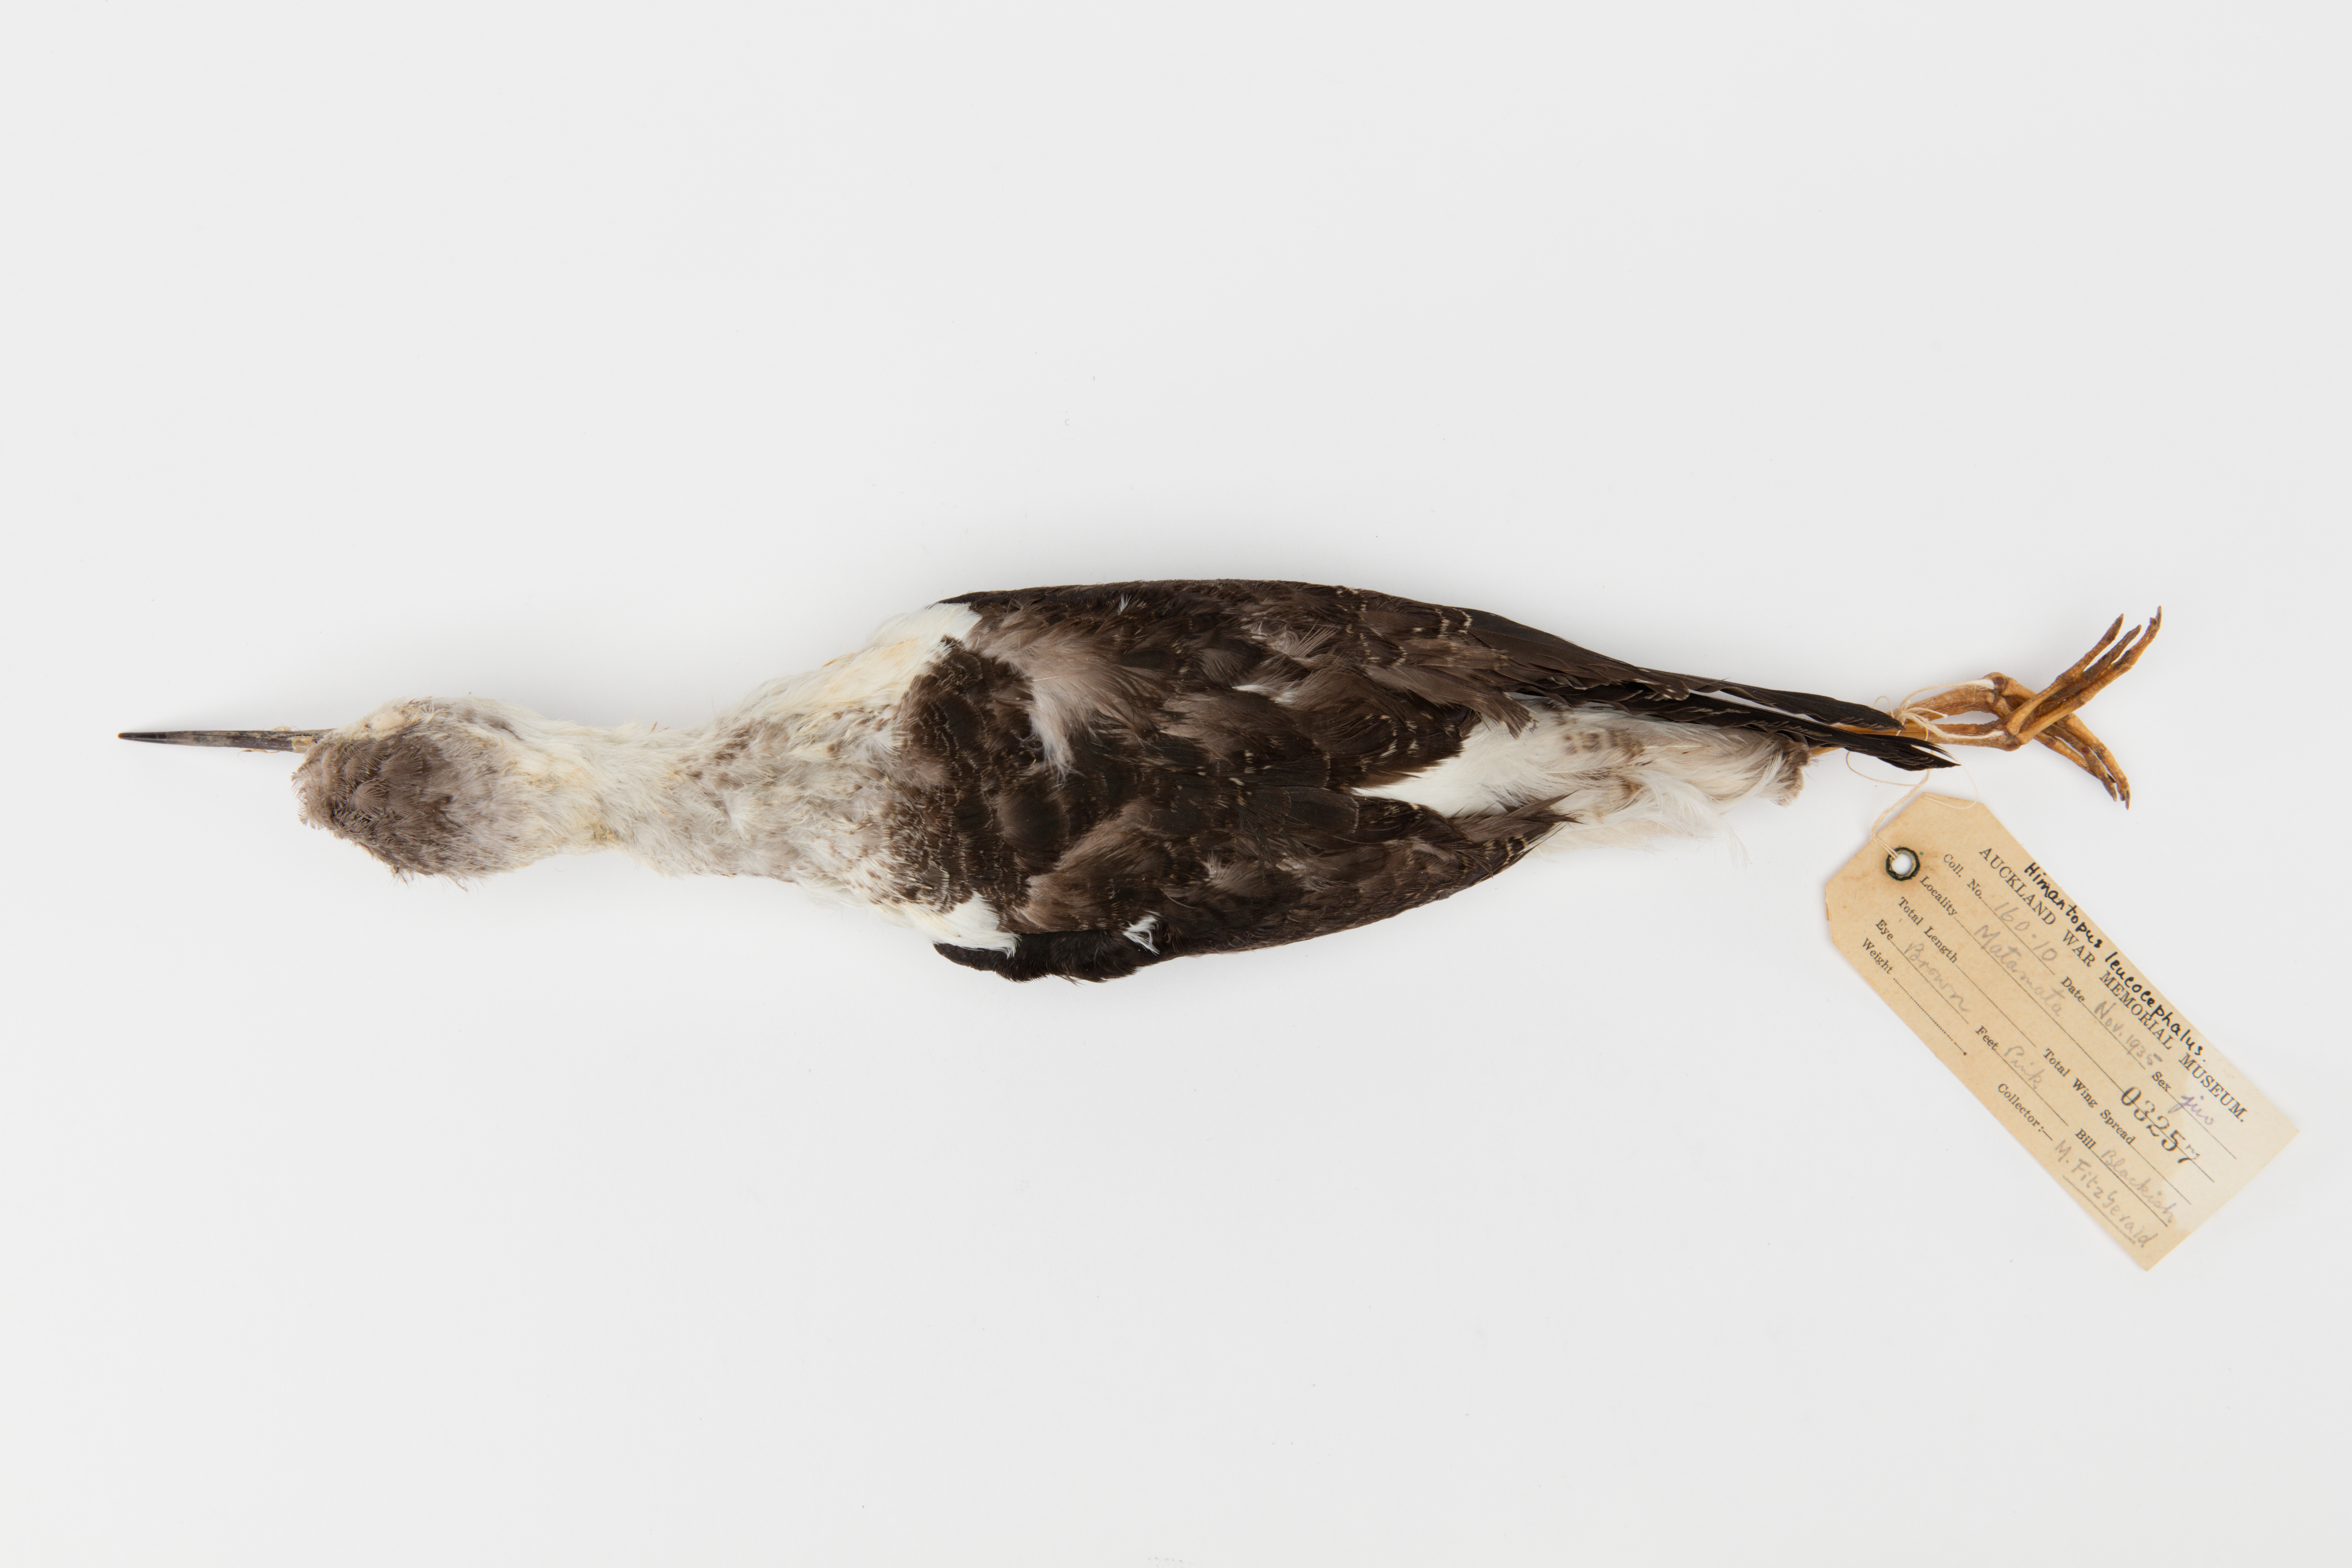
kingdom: Animalia
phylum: Chordata
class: Aves
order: Charadriiformes
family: Recurvirostridae
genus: Himantopus
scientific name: Himantopus himantopus
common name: Black-winged stilt
